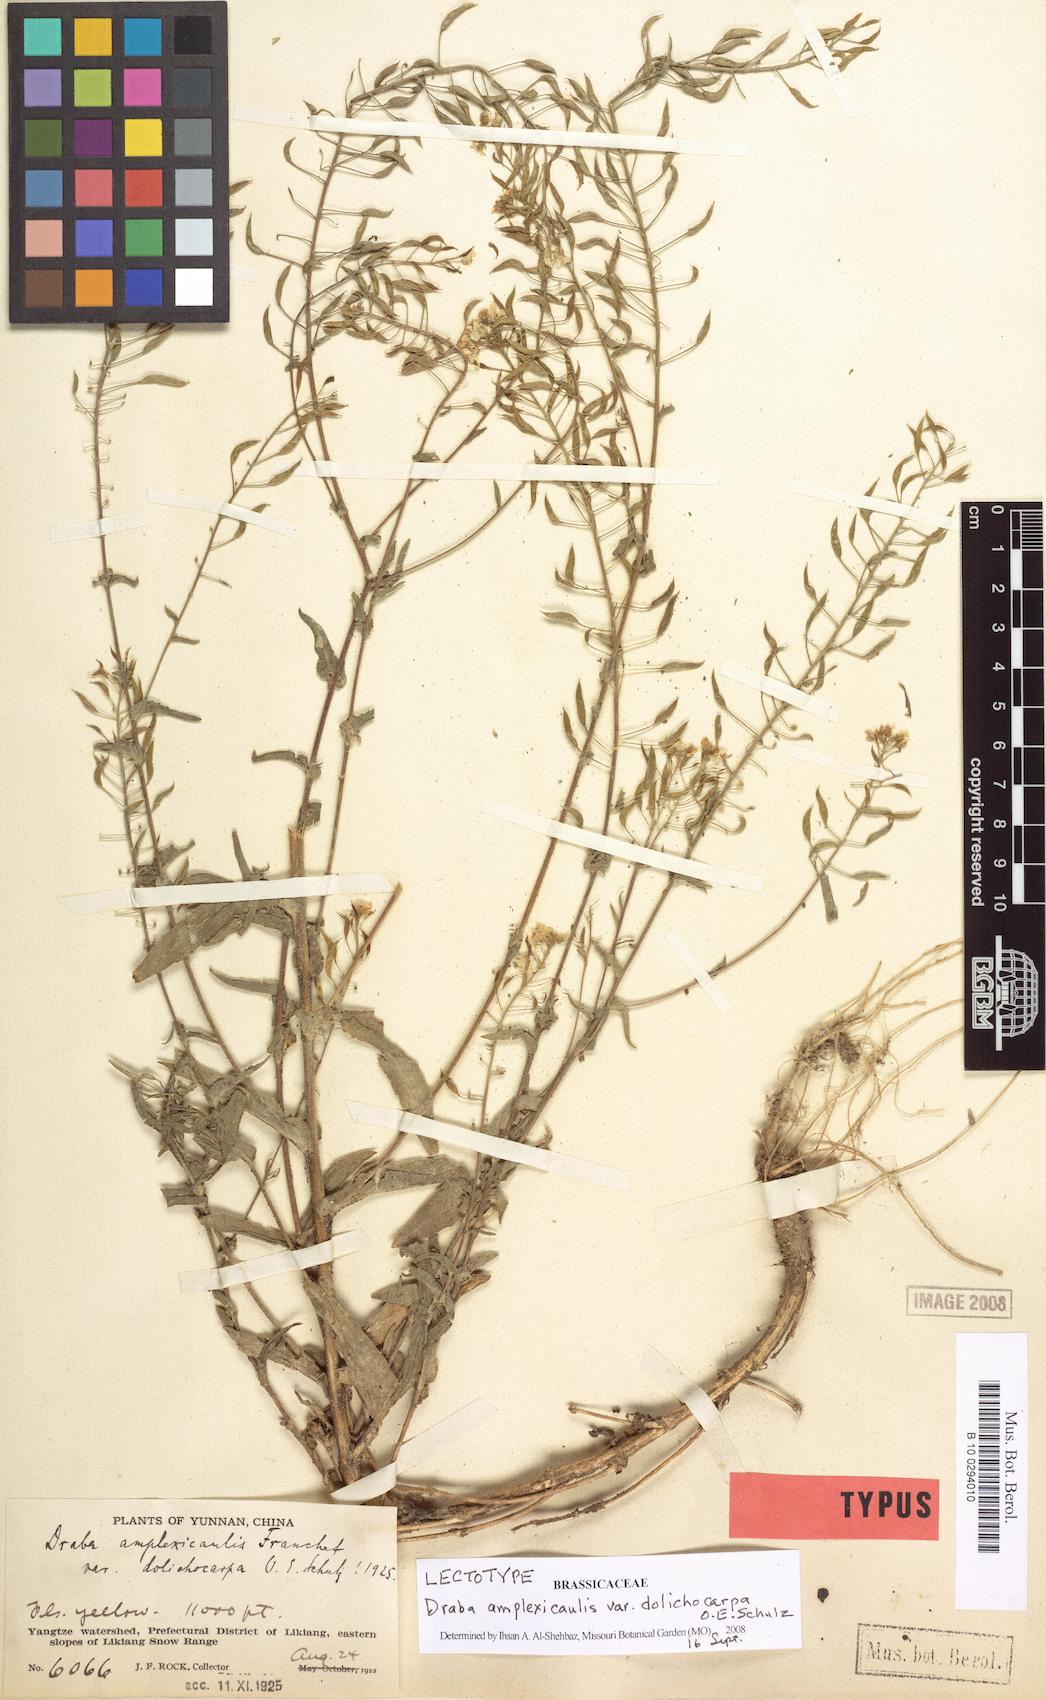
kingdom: Plantae
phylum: Tracheophyta
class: Magnoliopsida
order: Brassicales
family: Brassicaceae
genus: Draba
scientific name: Draba amplexicaulis
